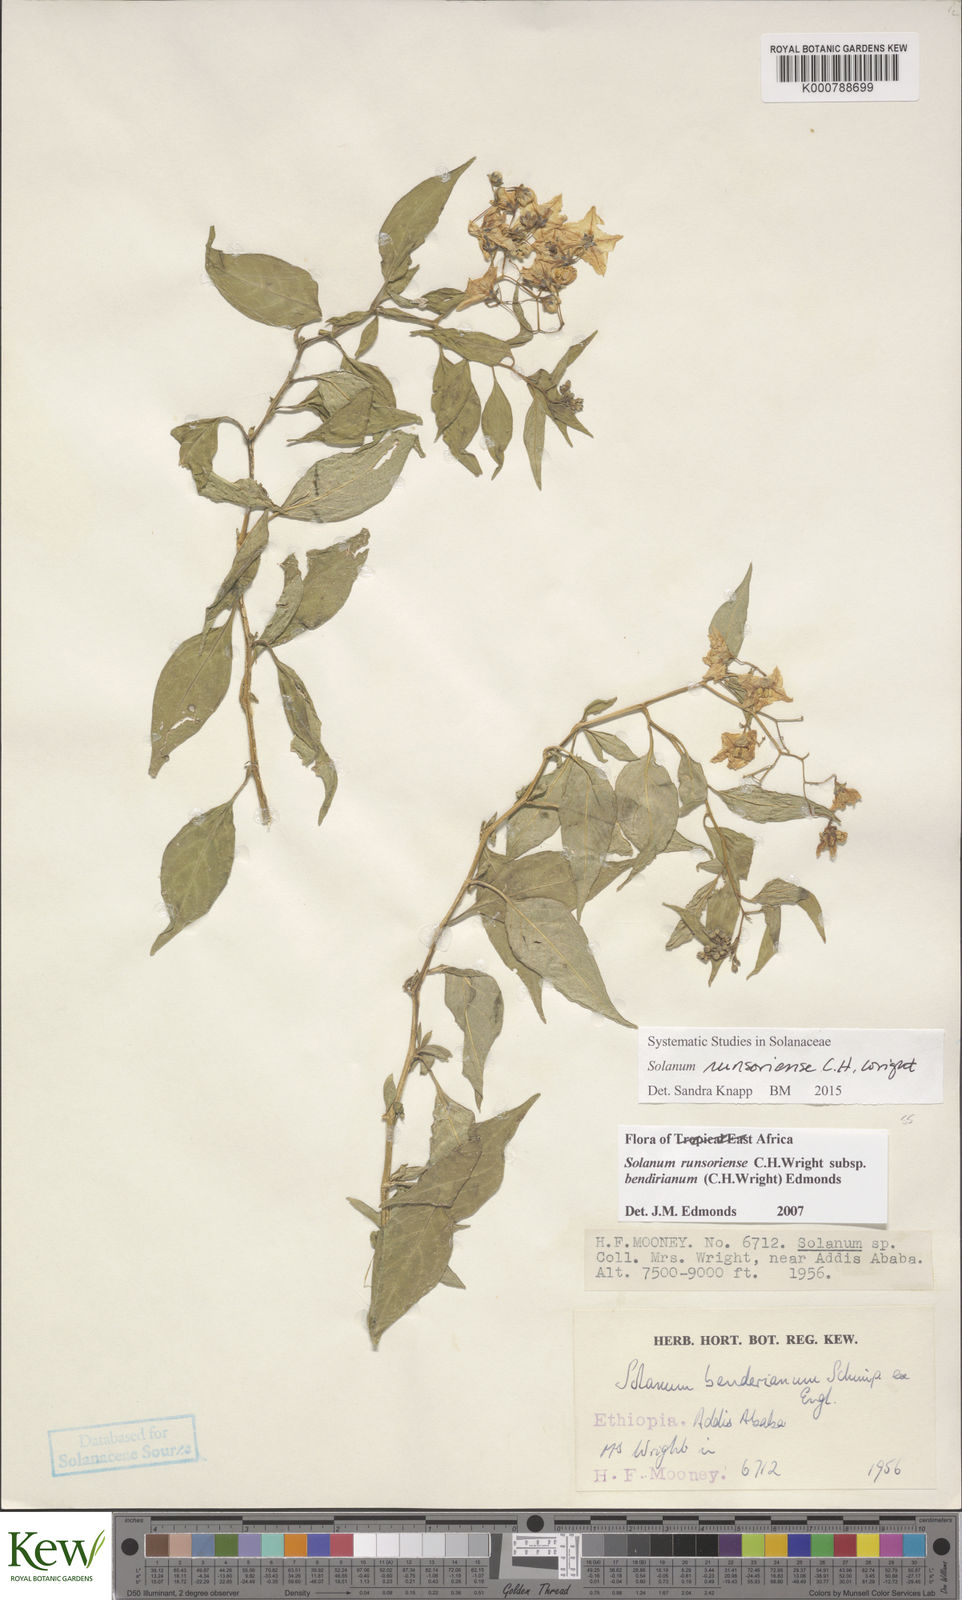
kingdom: Plantae
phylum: Tracheophyta
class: Magnoliopsida
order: Solanales
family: Solanaceae
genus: Solanum
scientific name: Solanum runsoriense
